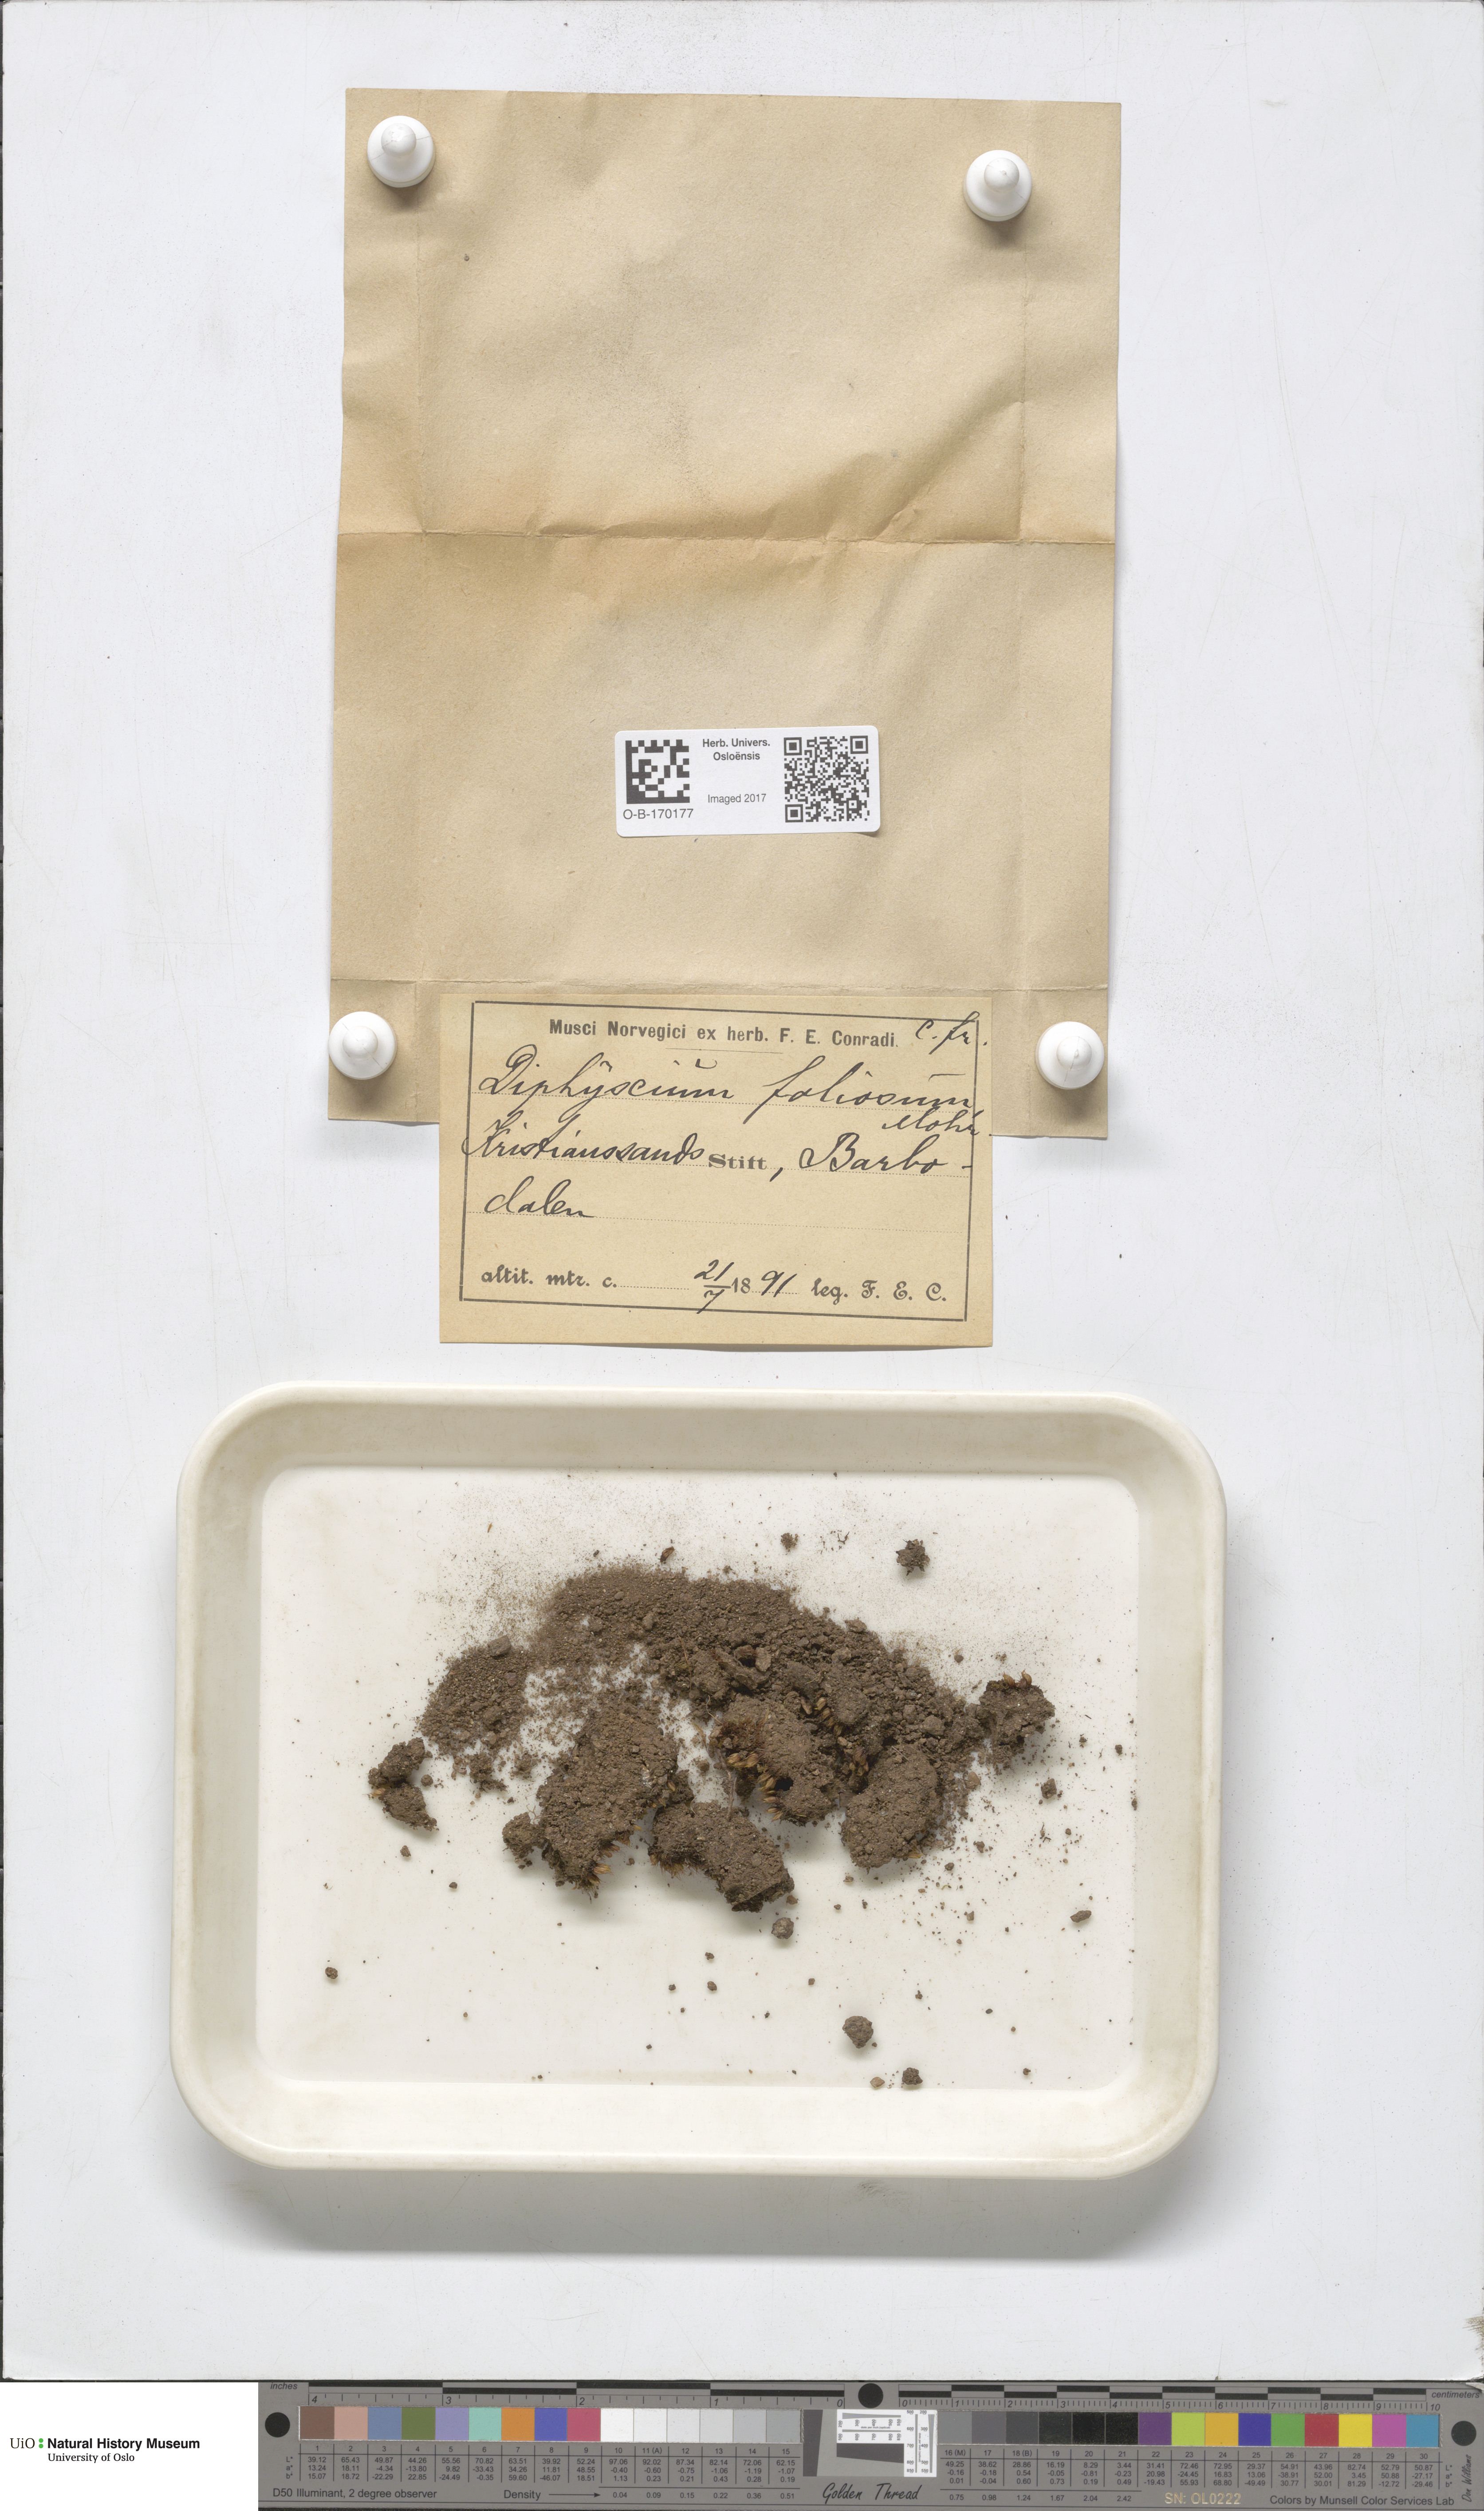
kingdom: Plantae
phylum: Bryophyta
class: Bryopsida
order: Diphysciales
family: Diphysciaceae
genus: Diphyscium
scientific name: Diphyscium foliosum
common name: Nut moss
